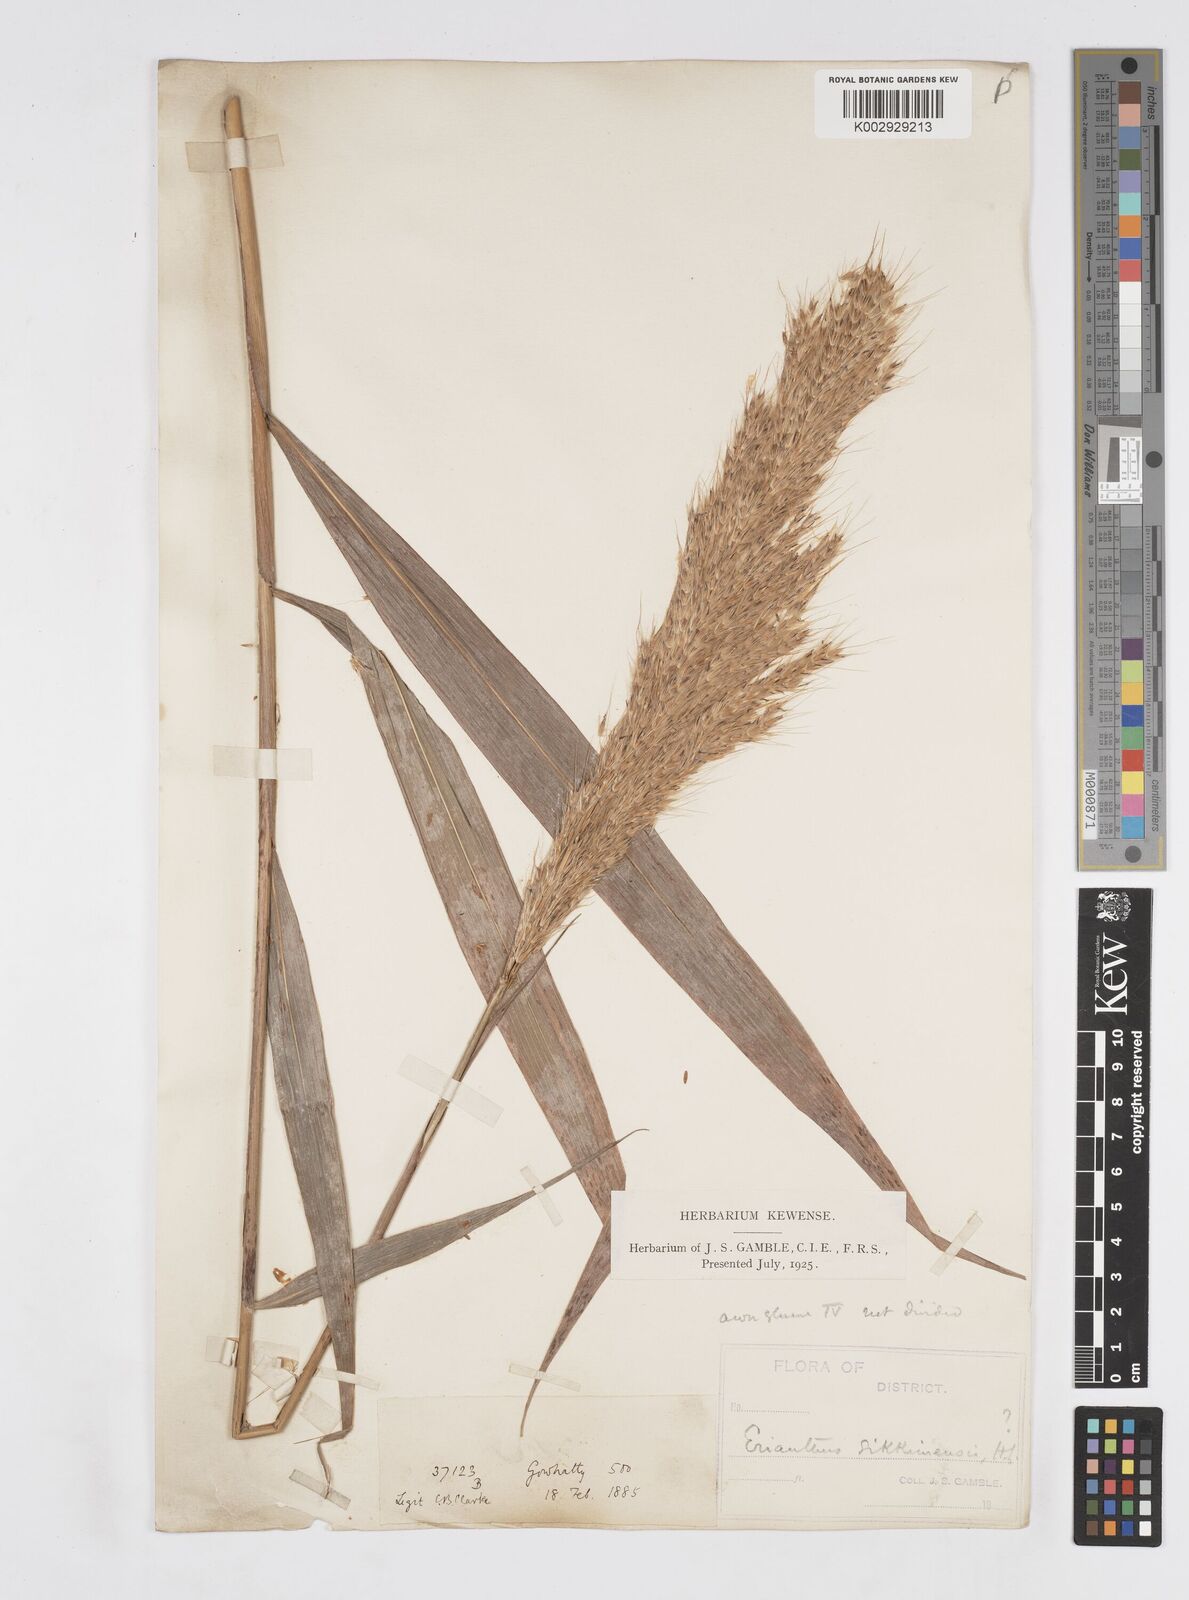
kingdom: Plantae
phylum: Tracheophyta
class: Liliopsida
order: Poales
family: Poaceae
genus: Melinis
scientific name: Melinis longiseta
